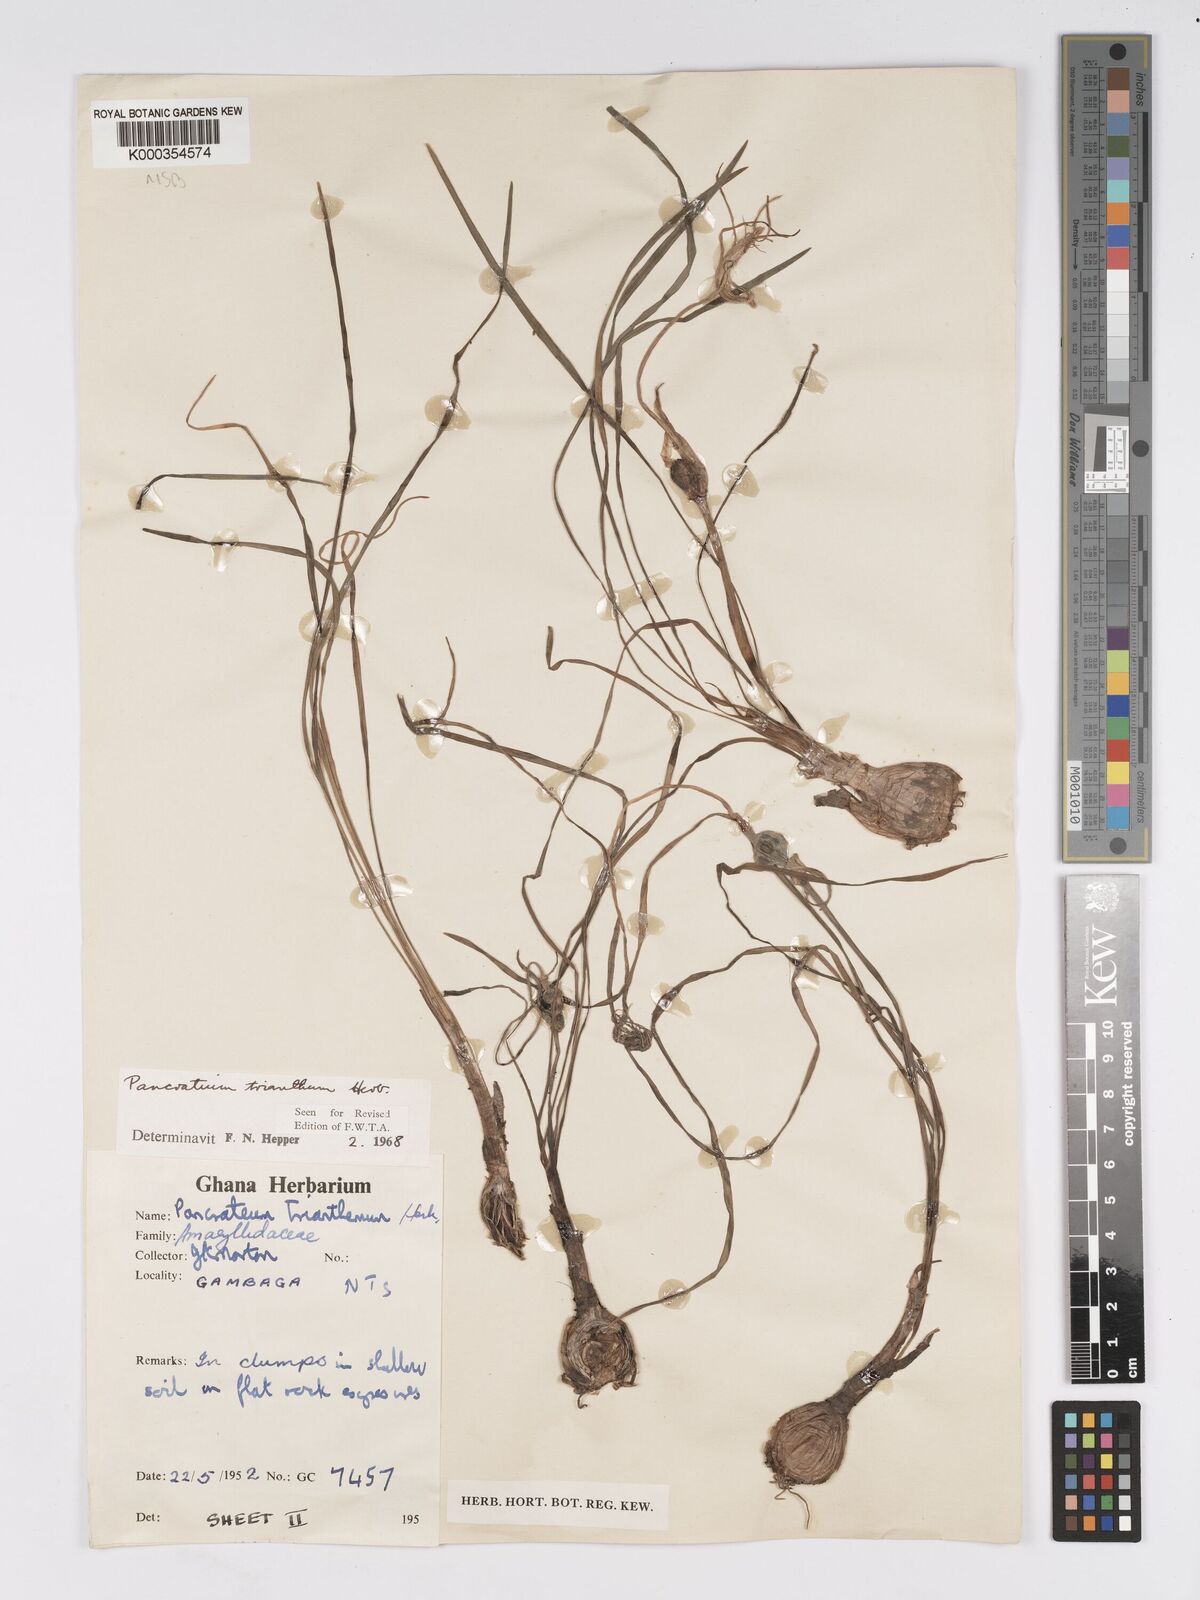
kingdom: Plantae
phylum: Tracheophyta
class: Liliopsida
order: Asparagales
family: Amaryllidaceae
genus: Pancratium
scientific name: Pancratium trianthum
